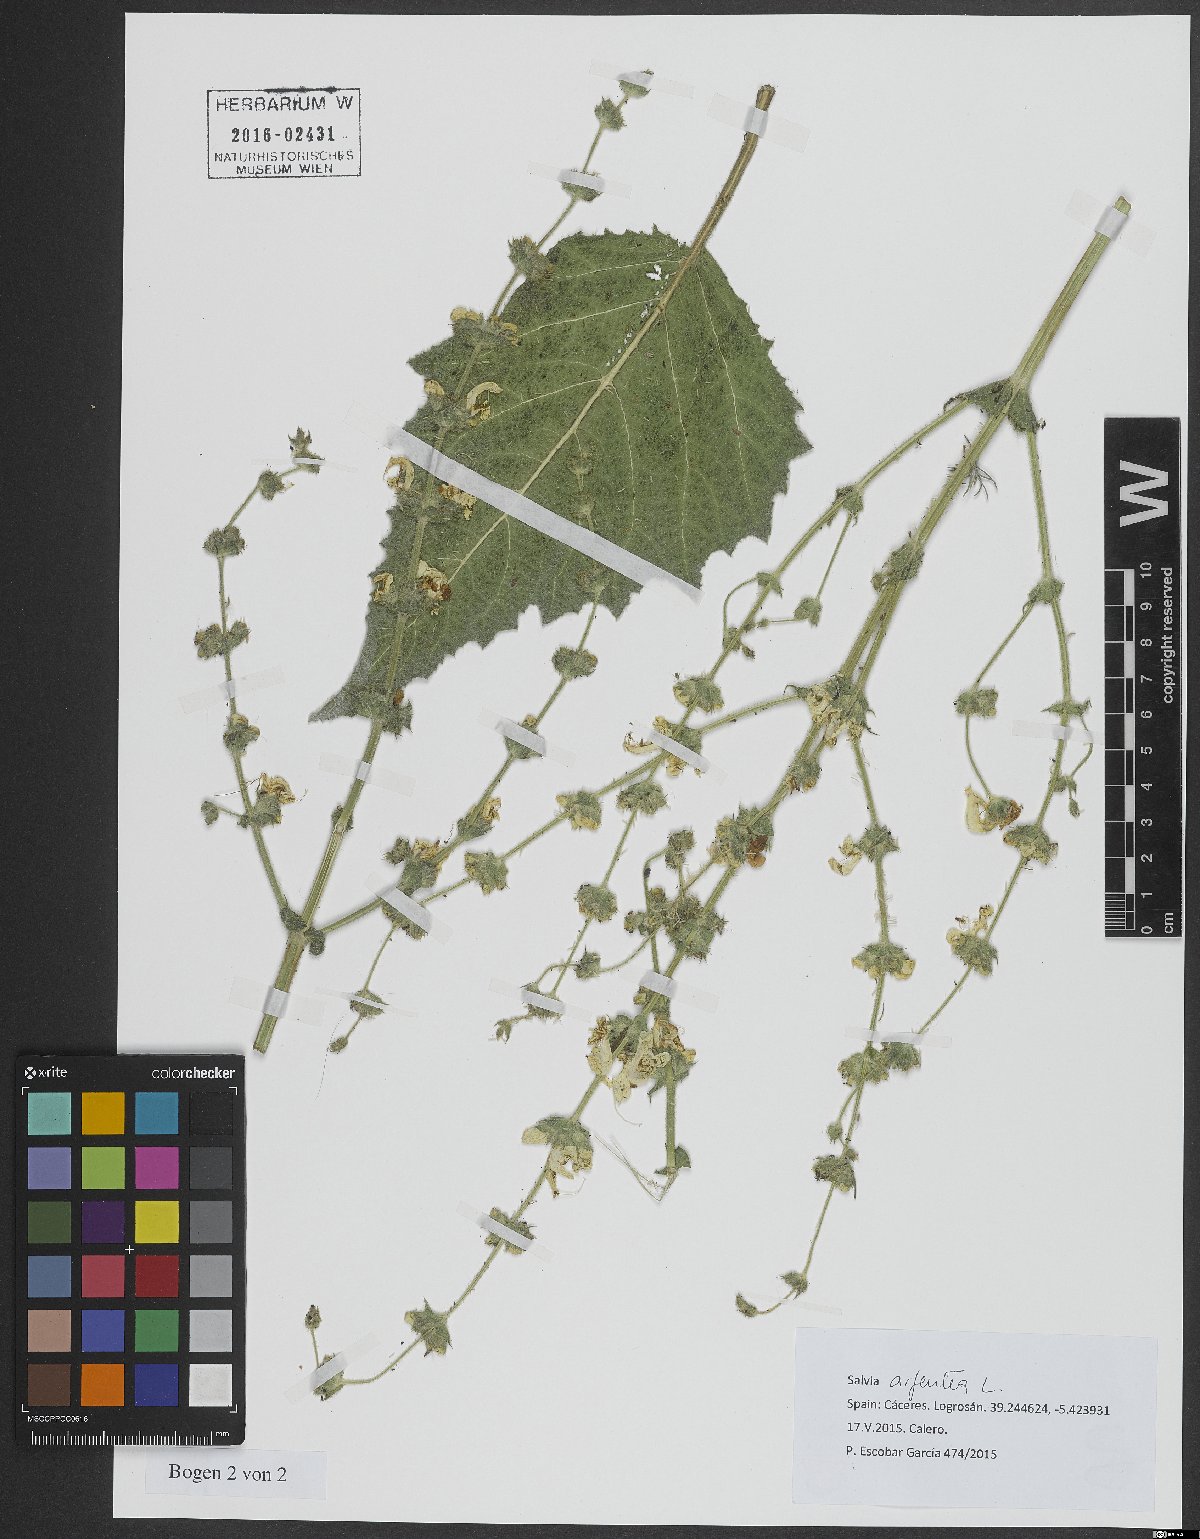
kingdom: Plantae
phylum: Tracheophyta
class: Magnoliopsida
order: Lamiales
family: Lamiaceae
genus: Salvia
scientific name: Salvia argentea
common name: Silver sage
